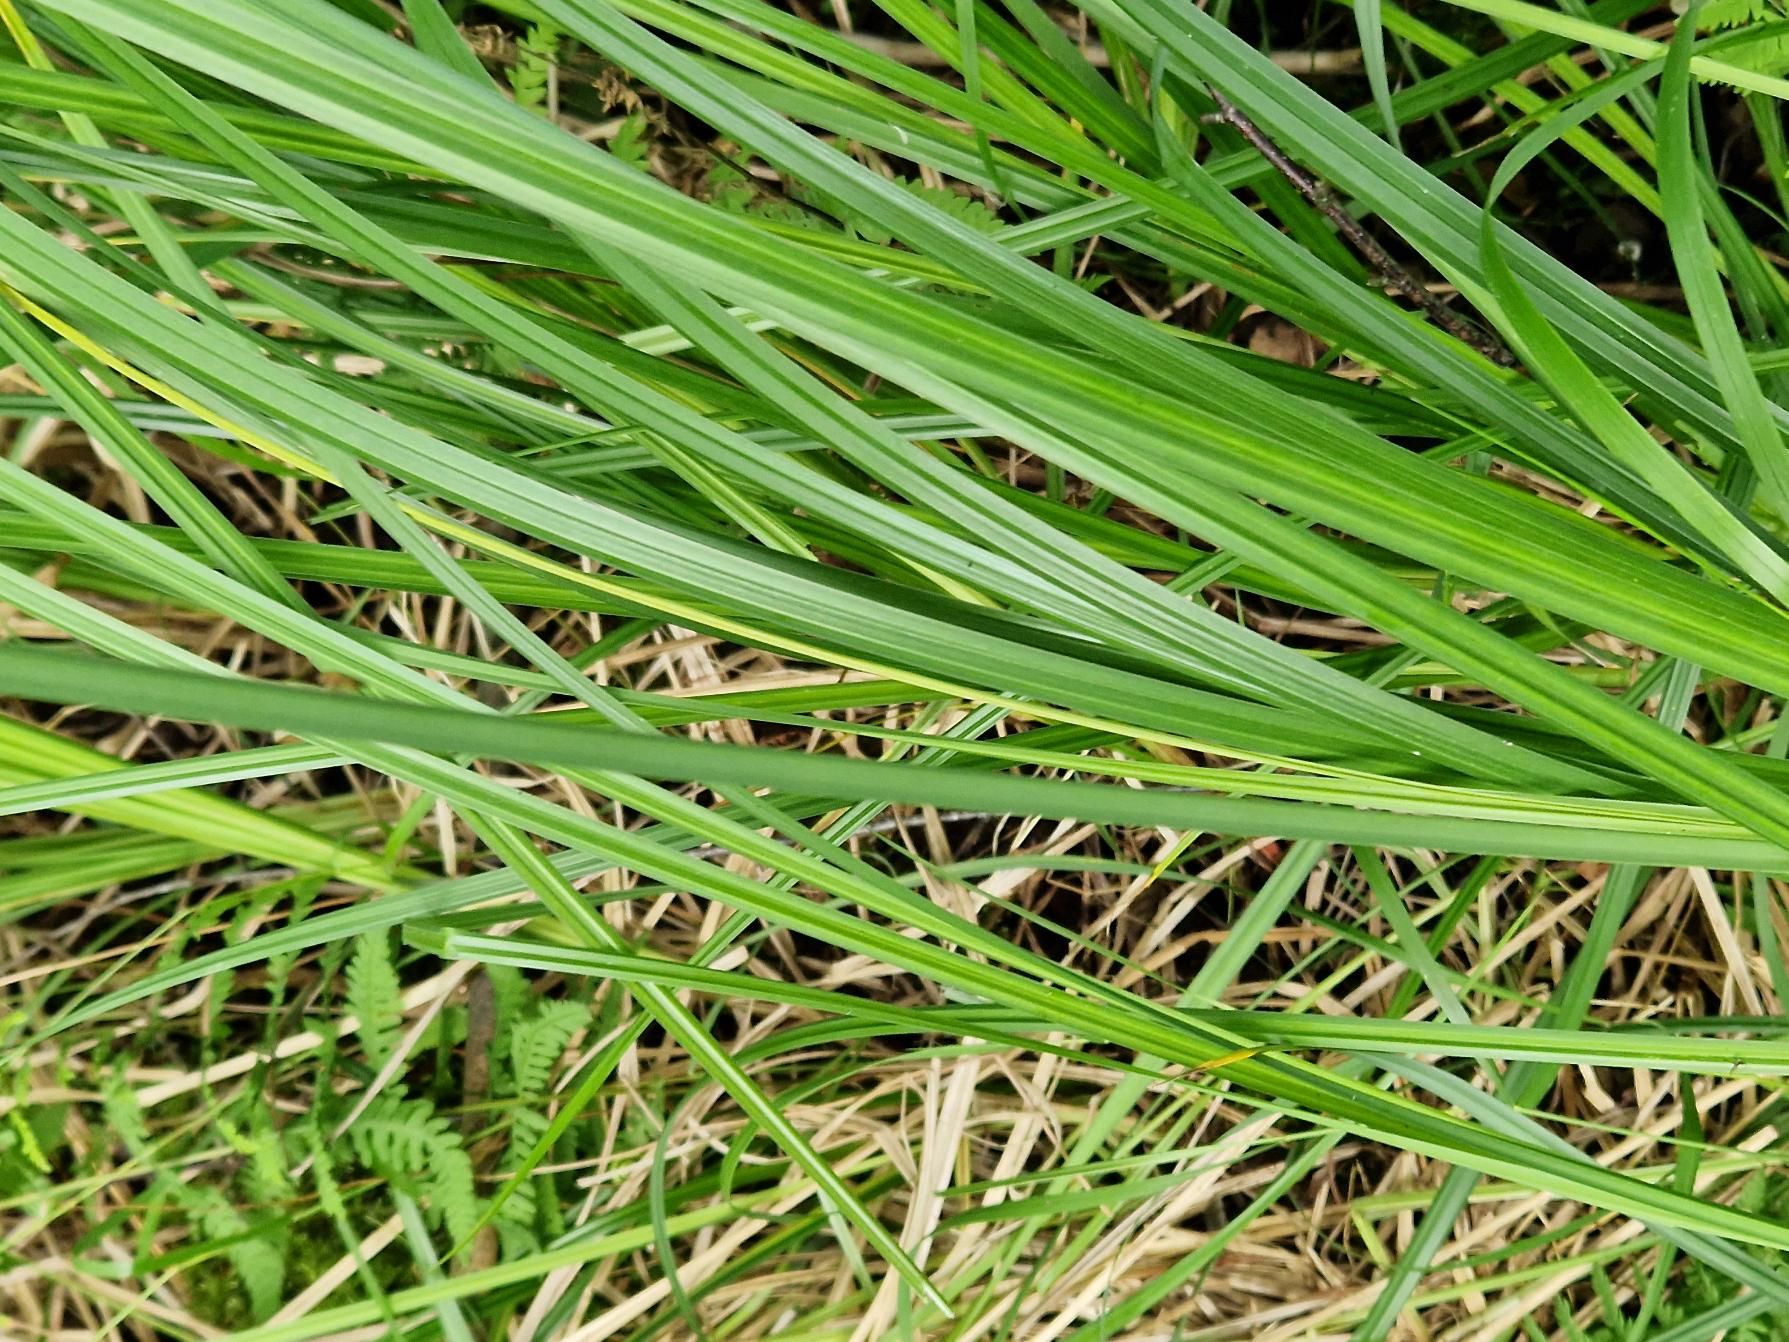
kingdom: Plantae
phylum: Tracheophyta
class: Liliopsida
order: Poales
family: Cyperaceae
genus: Carex
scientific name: Carex acutiformis
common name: Kær-star
